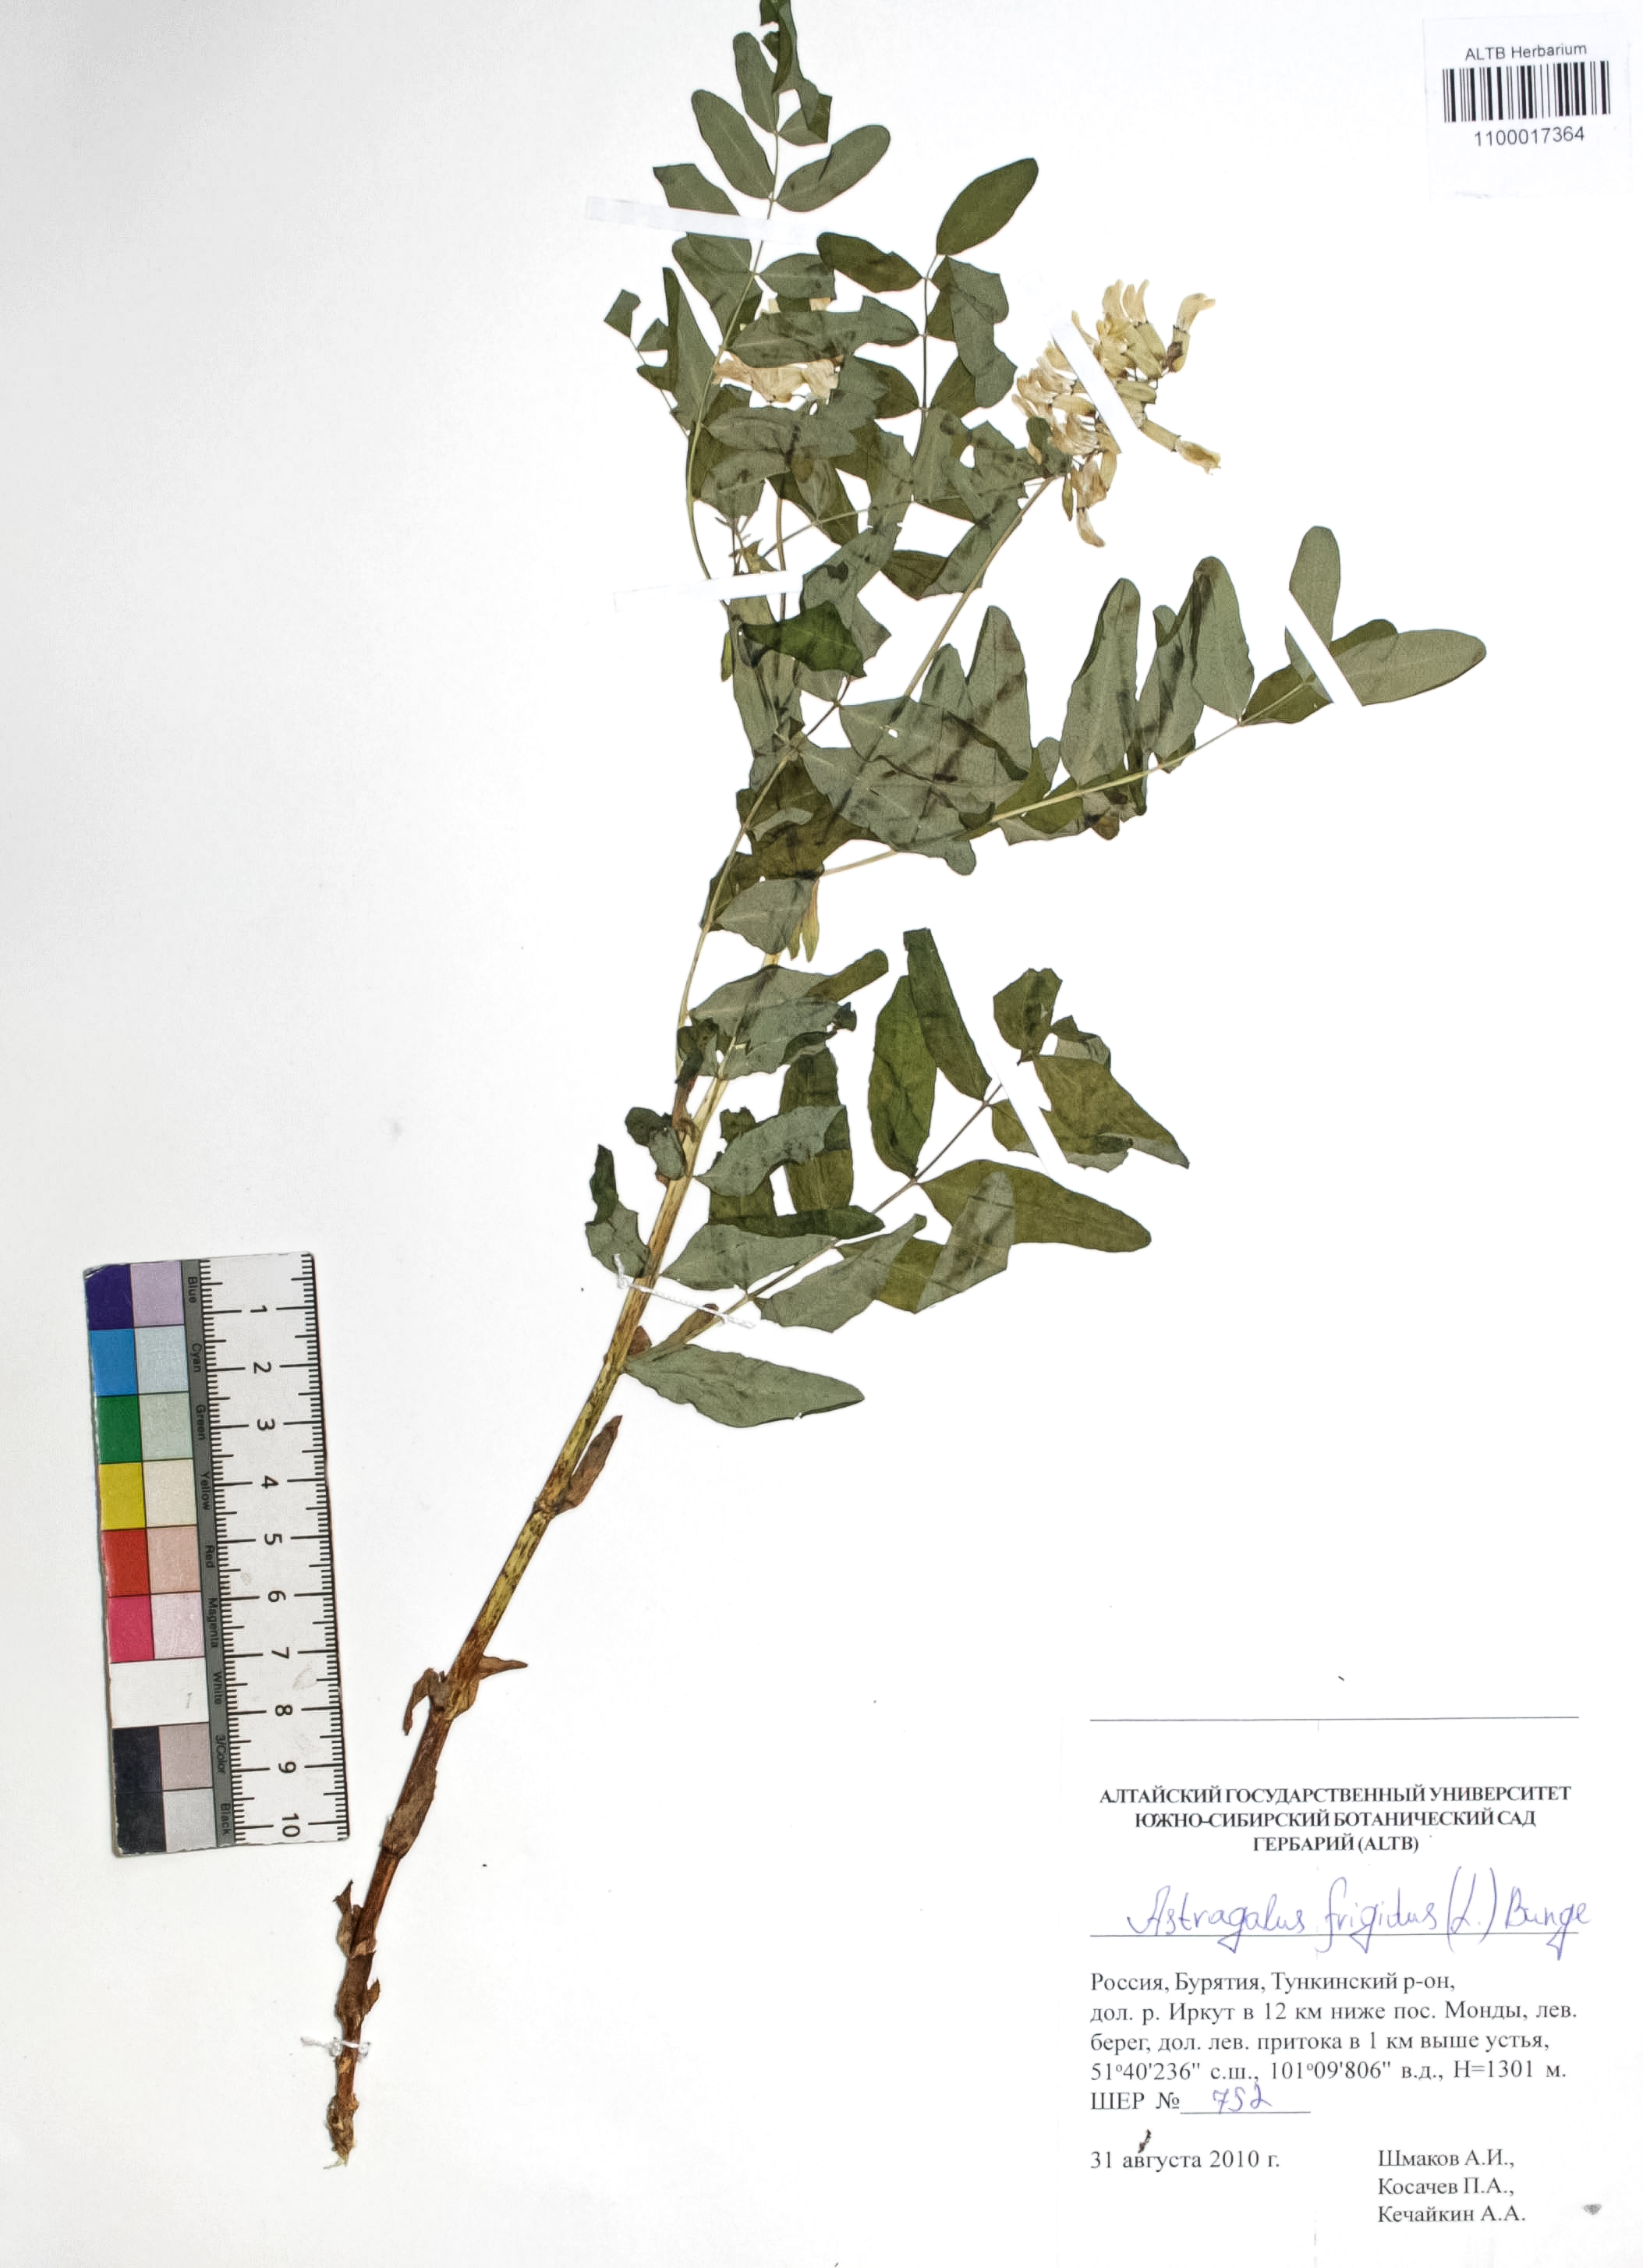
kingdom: Plantae
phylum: Tracheophyta
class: Magnoliopsida
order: Fabales
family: Fabaceae
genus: Astragalus
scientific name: Astragalus frigidus
